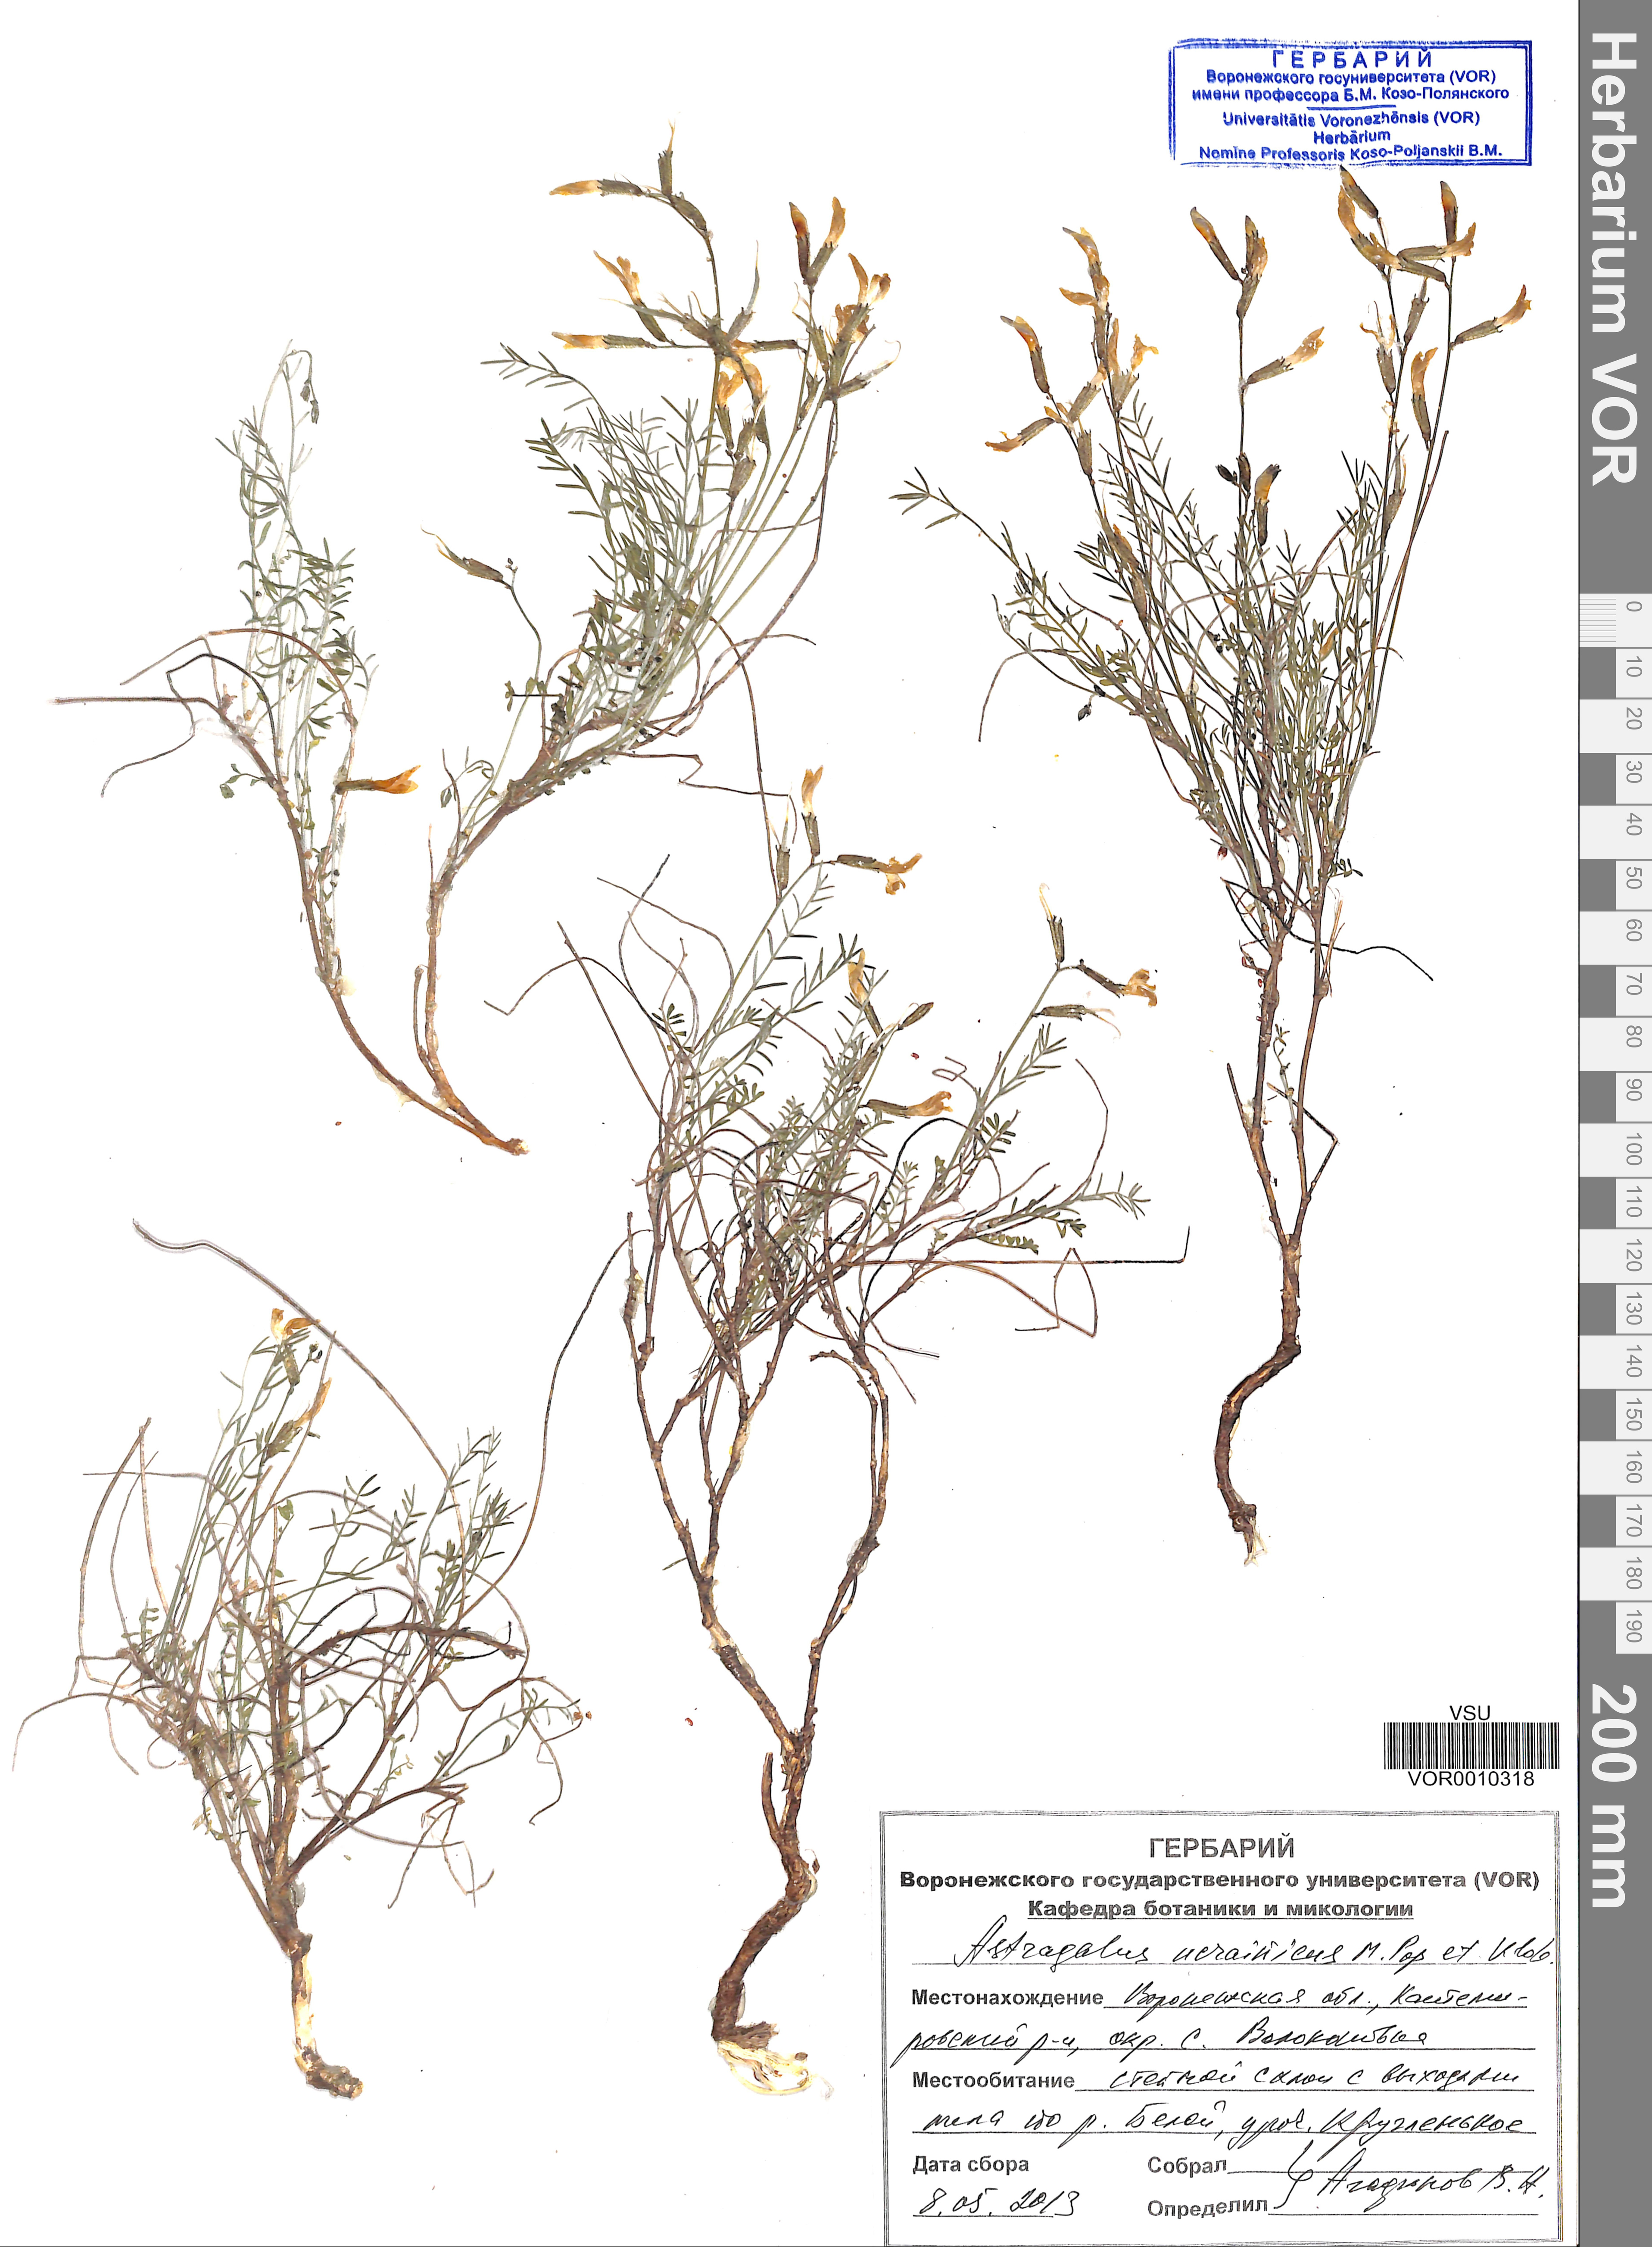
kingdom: Plantae
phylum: Tracheophyta
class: Magnoliopsida
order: Fabales
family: Fabaceae
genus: Astragalus
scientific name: Astragalus ucrainicus
